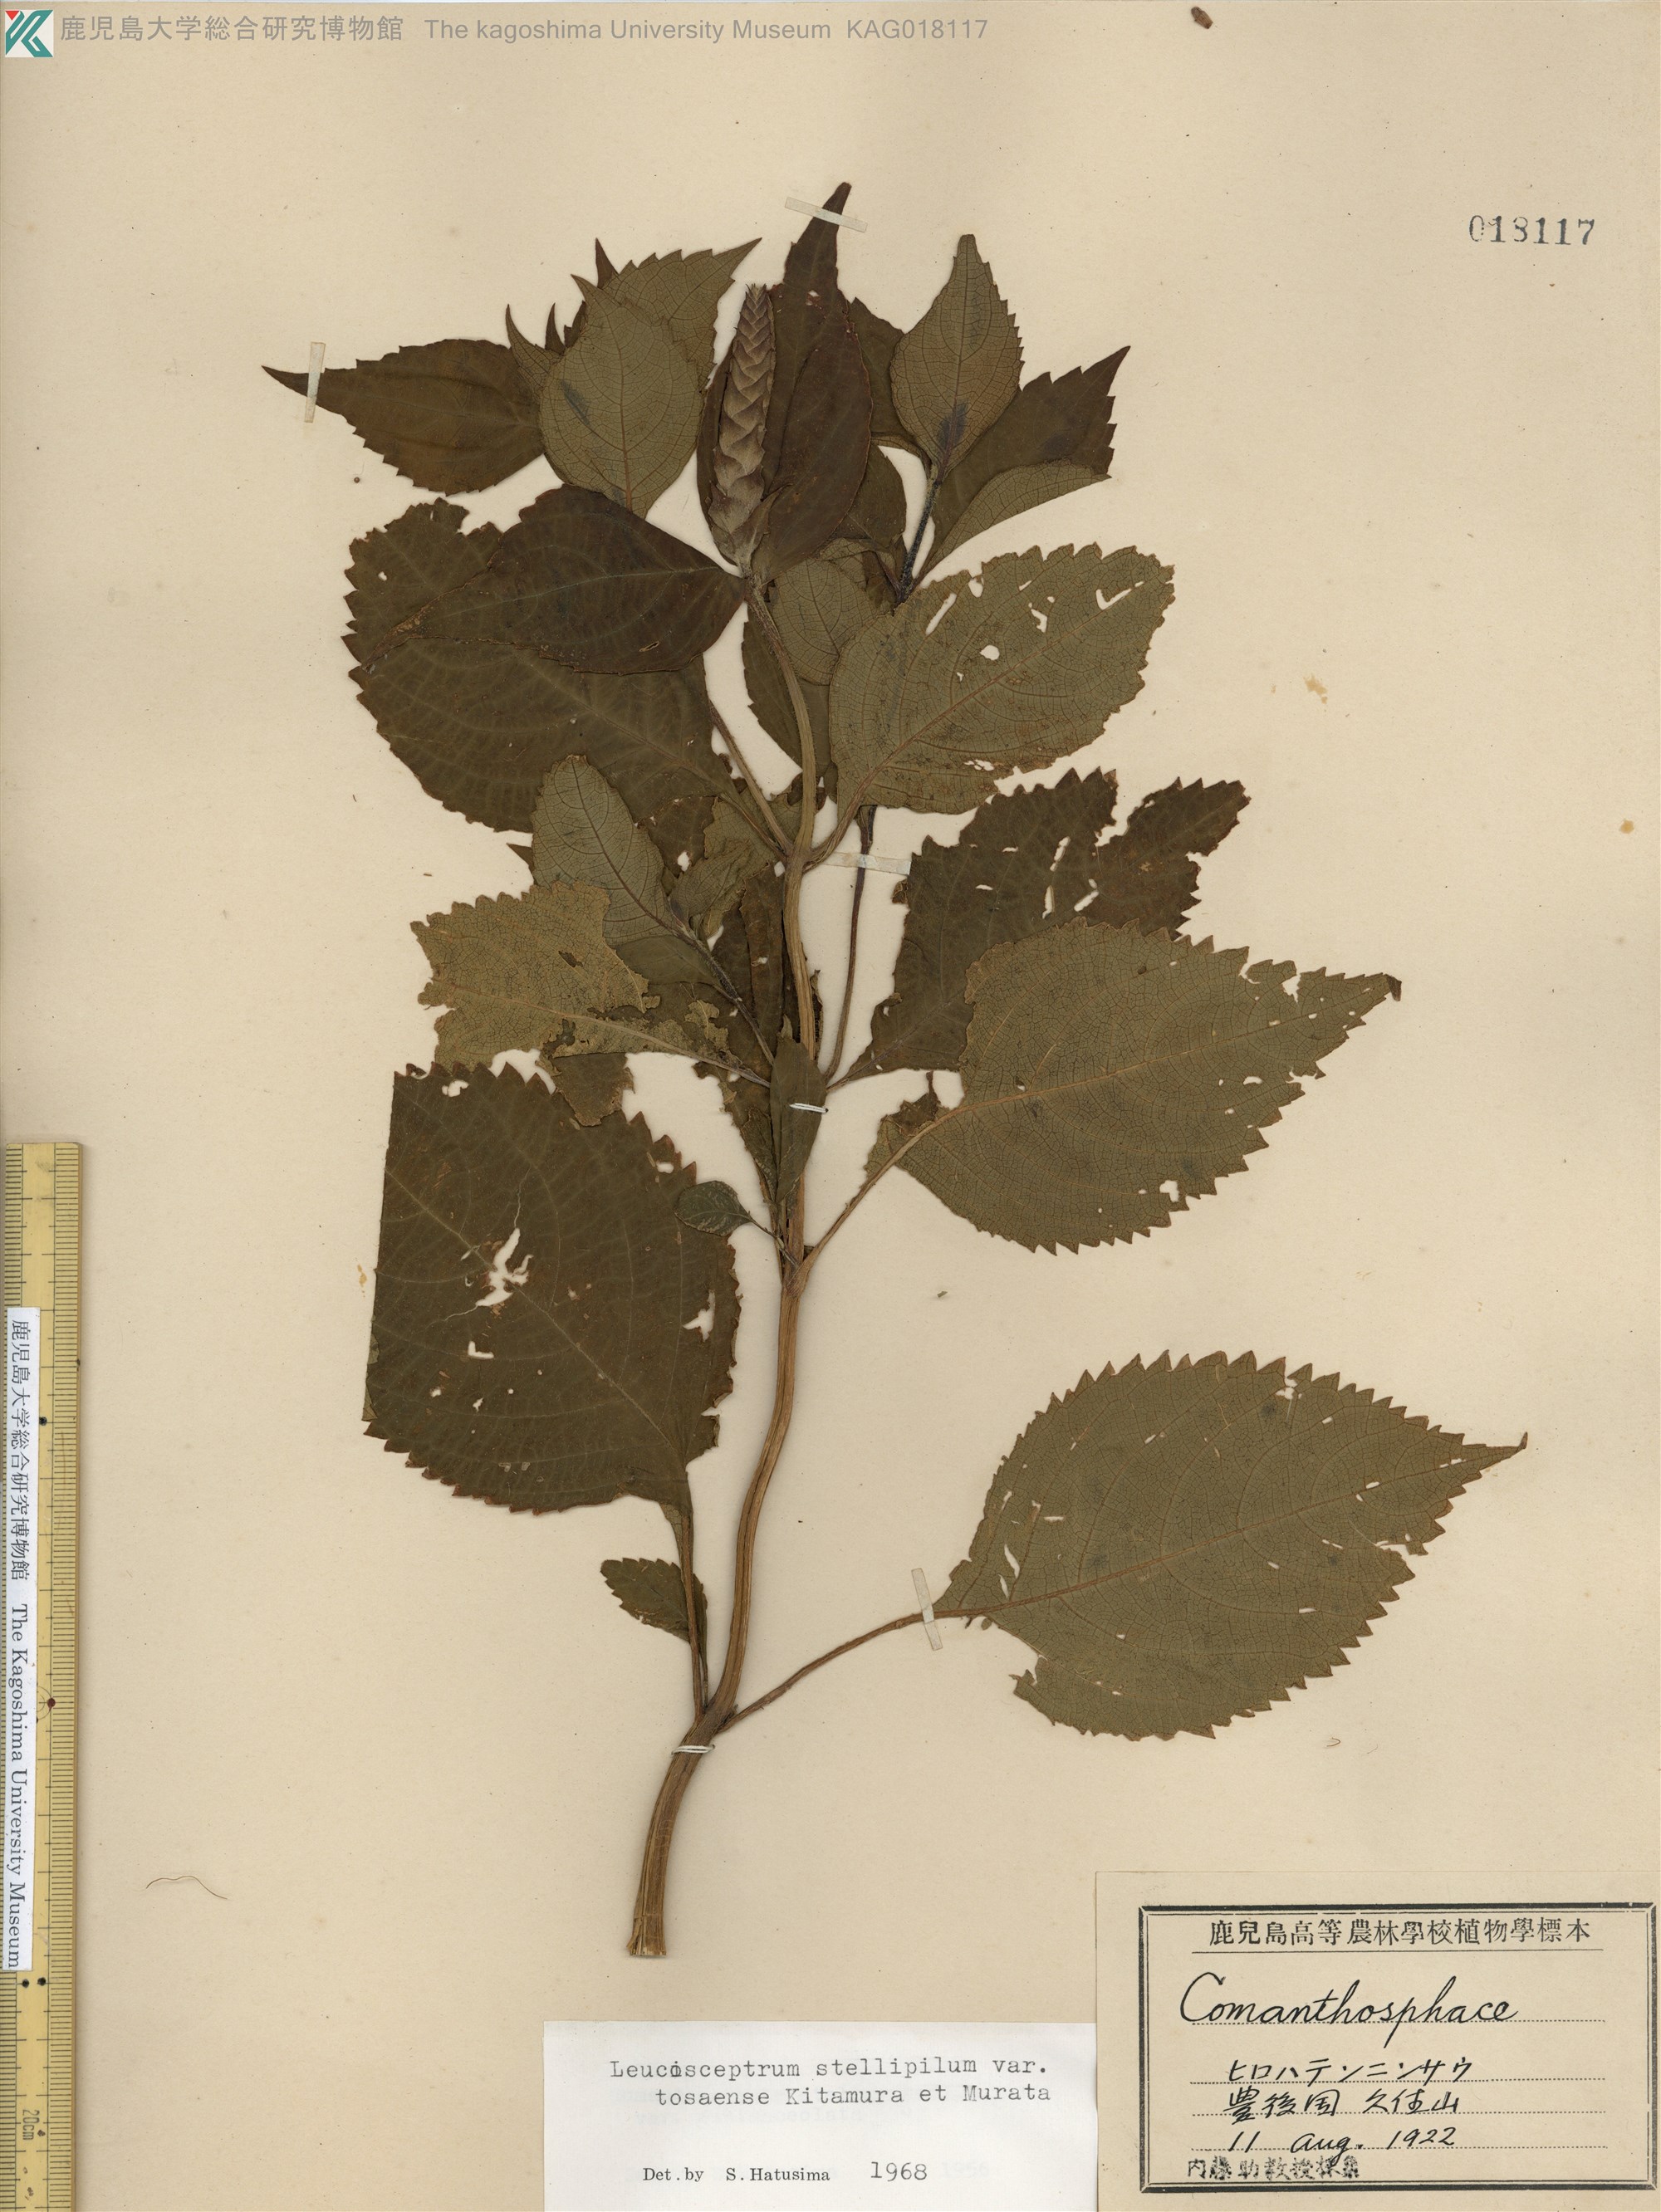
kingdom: Plantae
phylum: Tracheophyta
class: Magnoliopsida
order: Lamiales
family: Lamiaceae
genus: Comanthosphace
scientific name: Comanthosphace japonica
